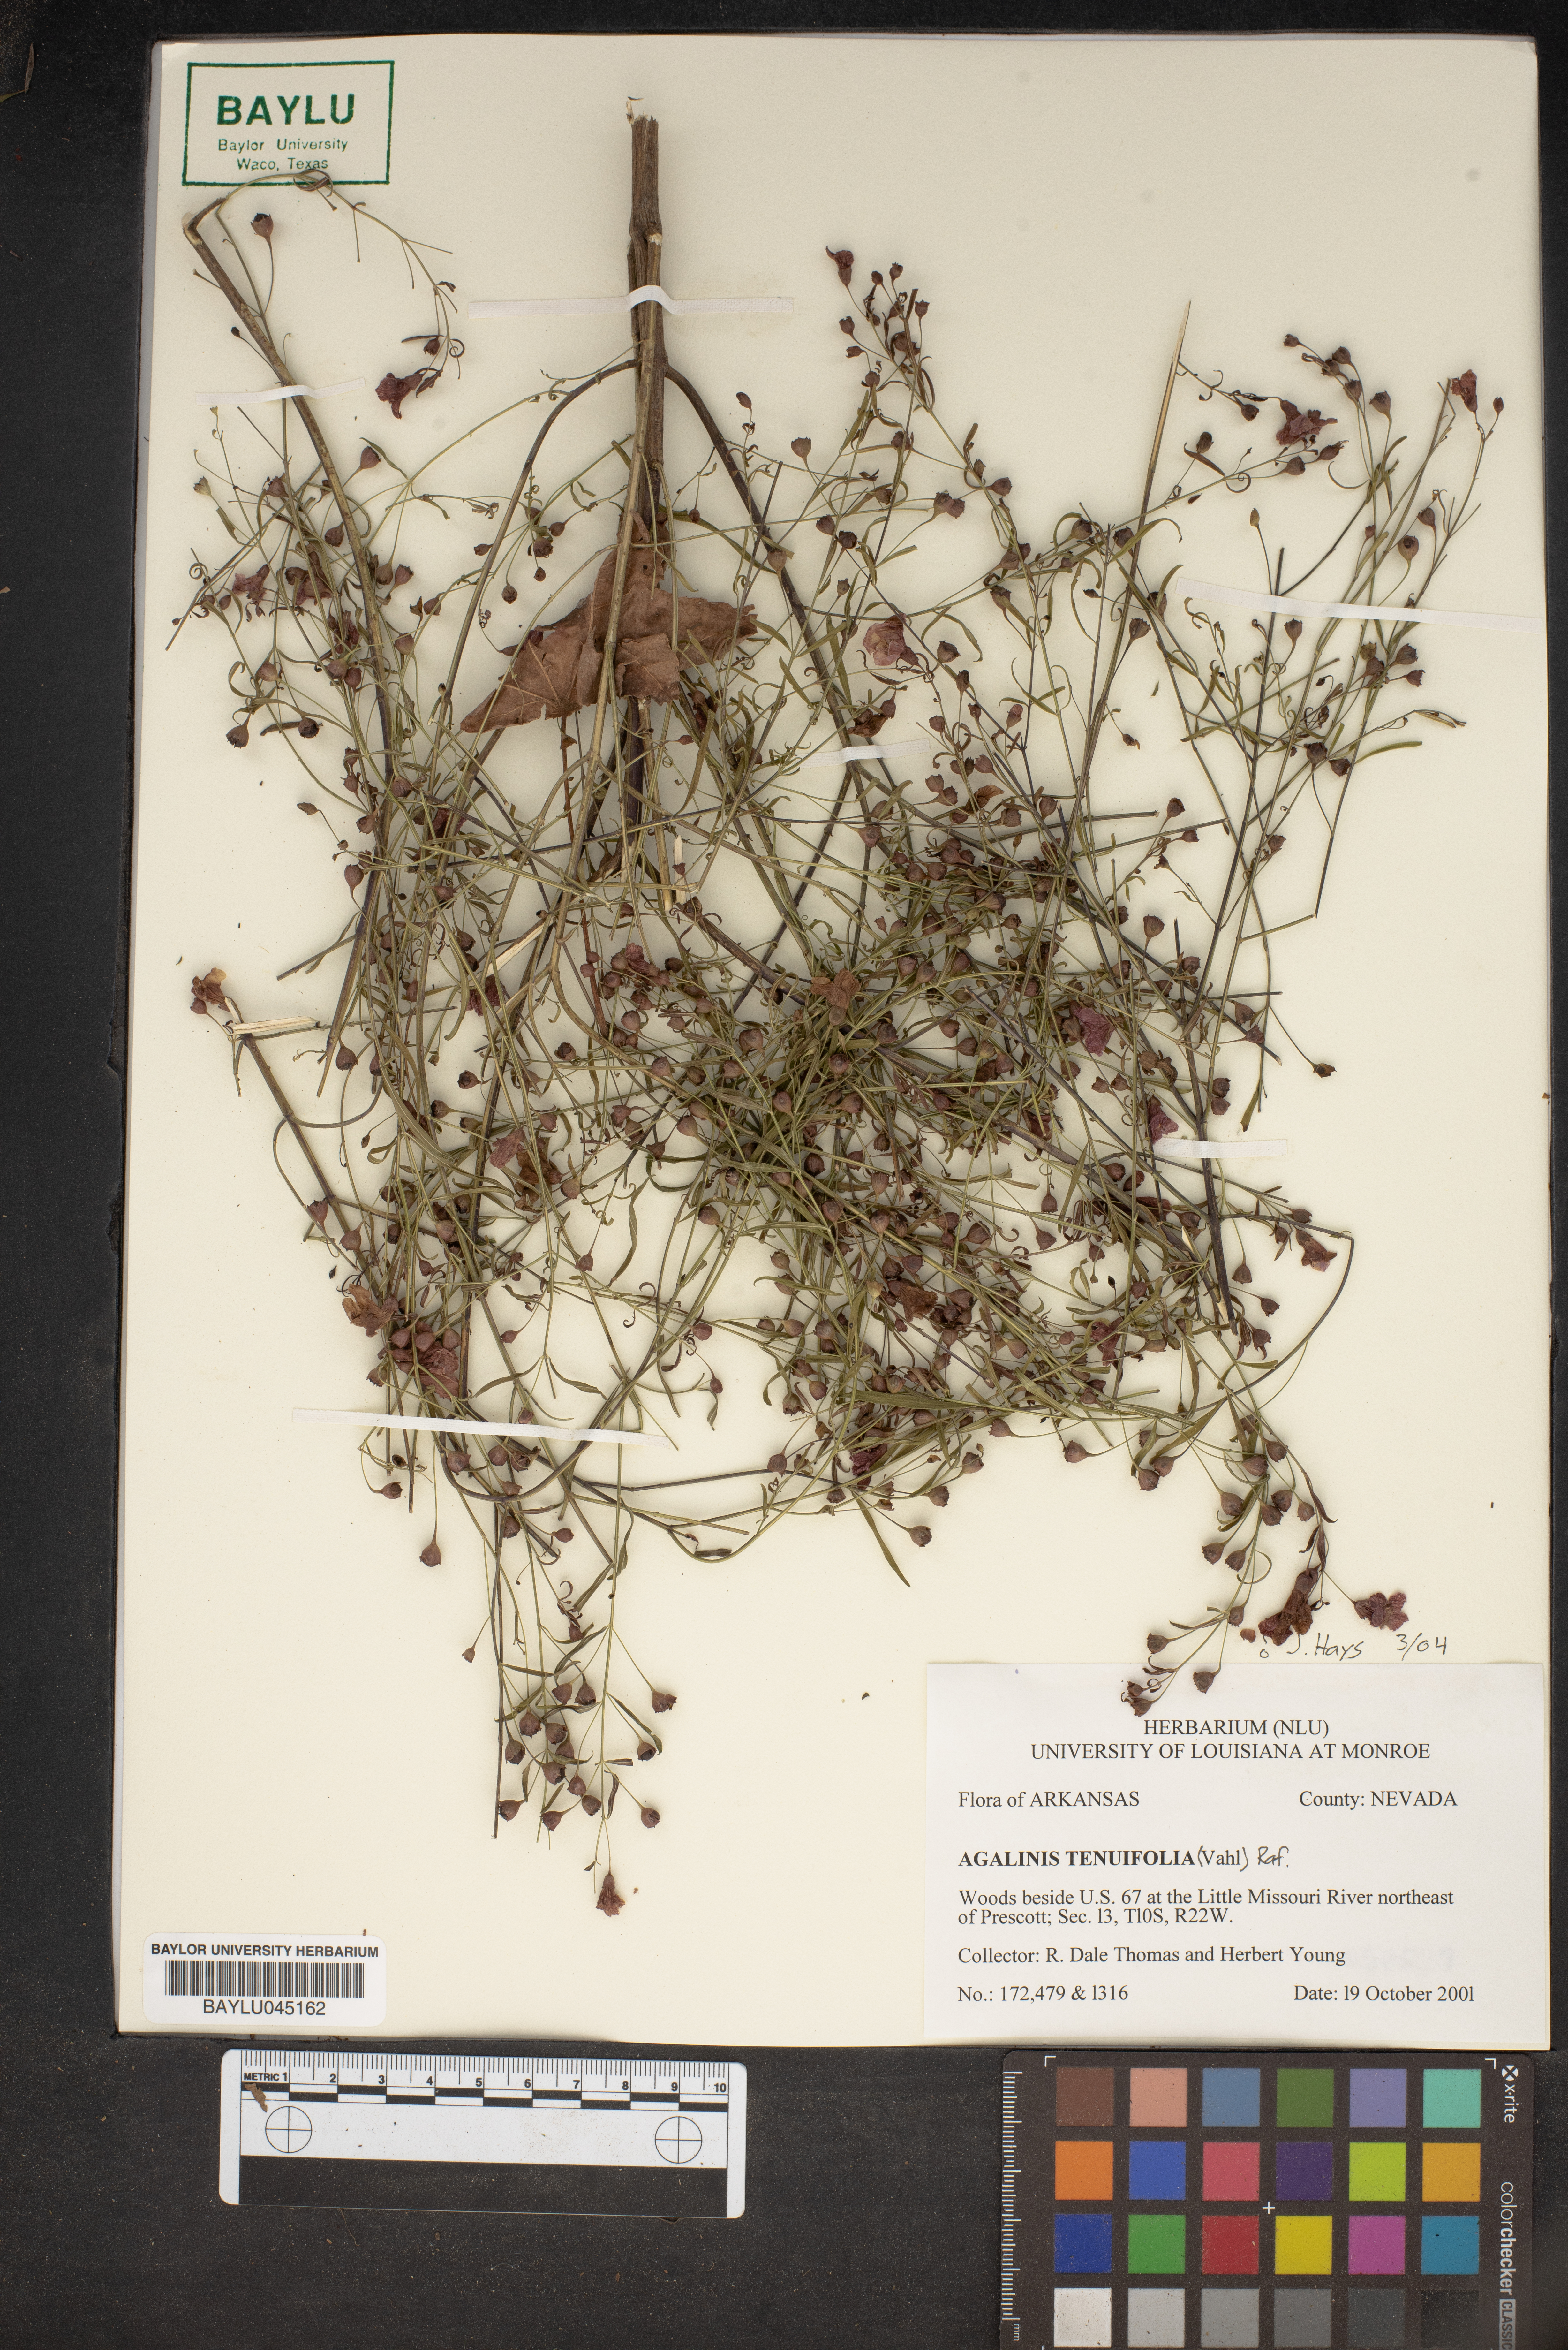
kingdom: Plantae
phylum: Tracheophyta
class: Magnoliopsida
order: Lamiales
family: Orobanchaceae
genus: Agalinis
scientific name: Agalinis tenuifolia
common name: Slender agalinis
